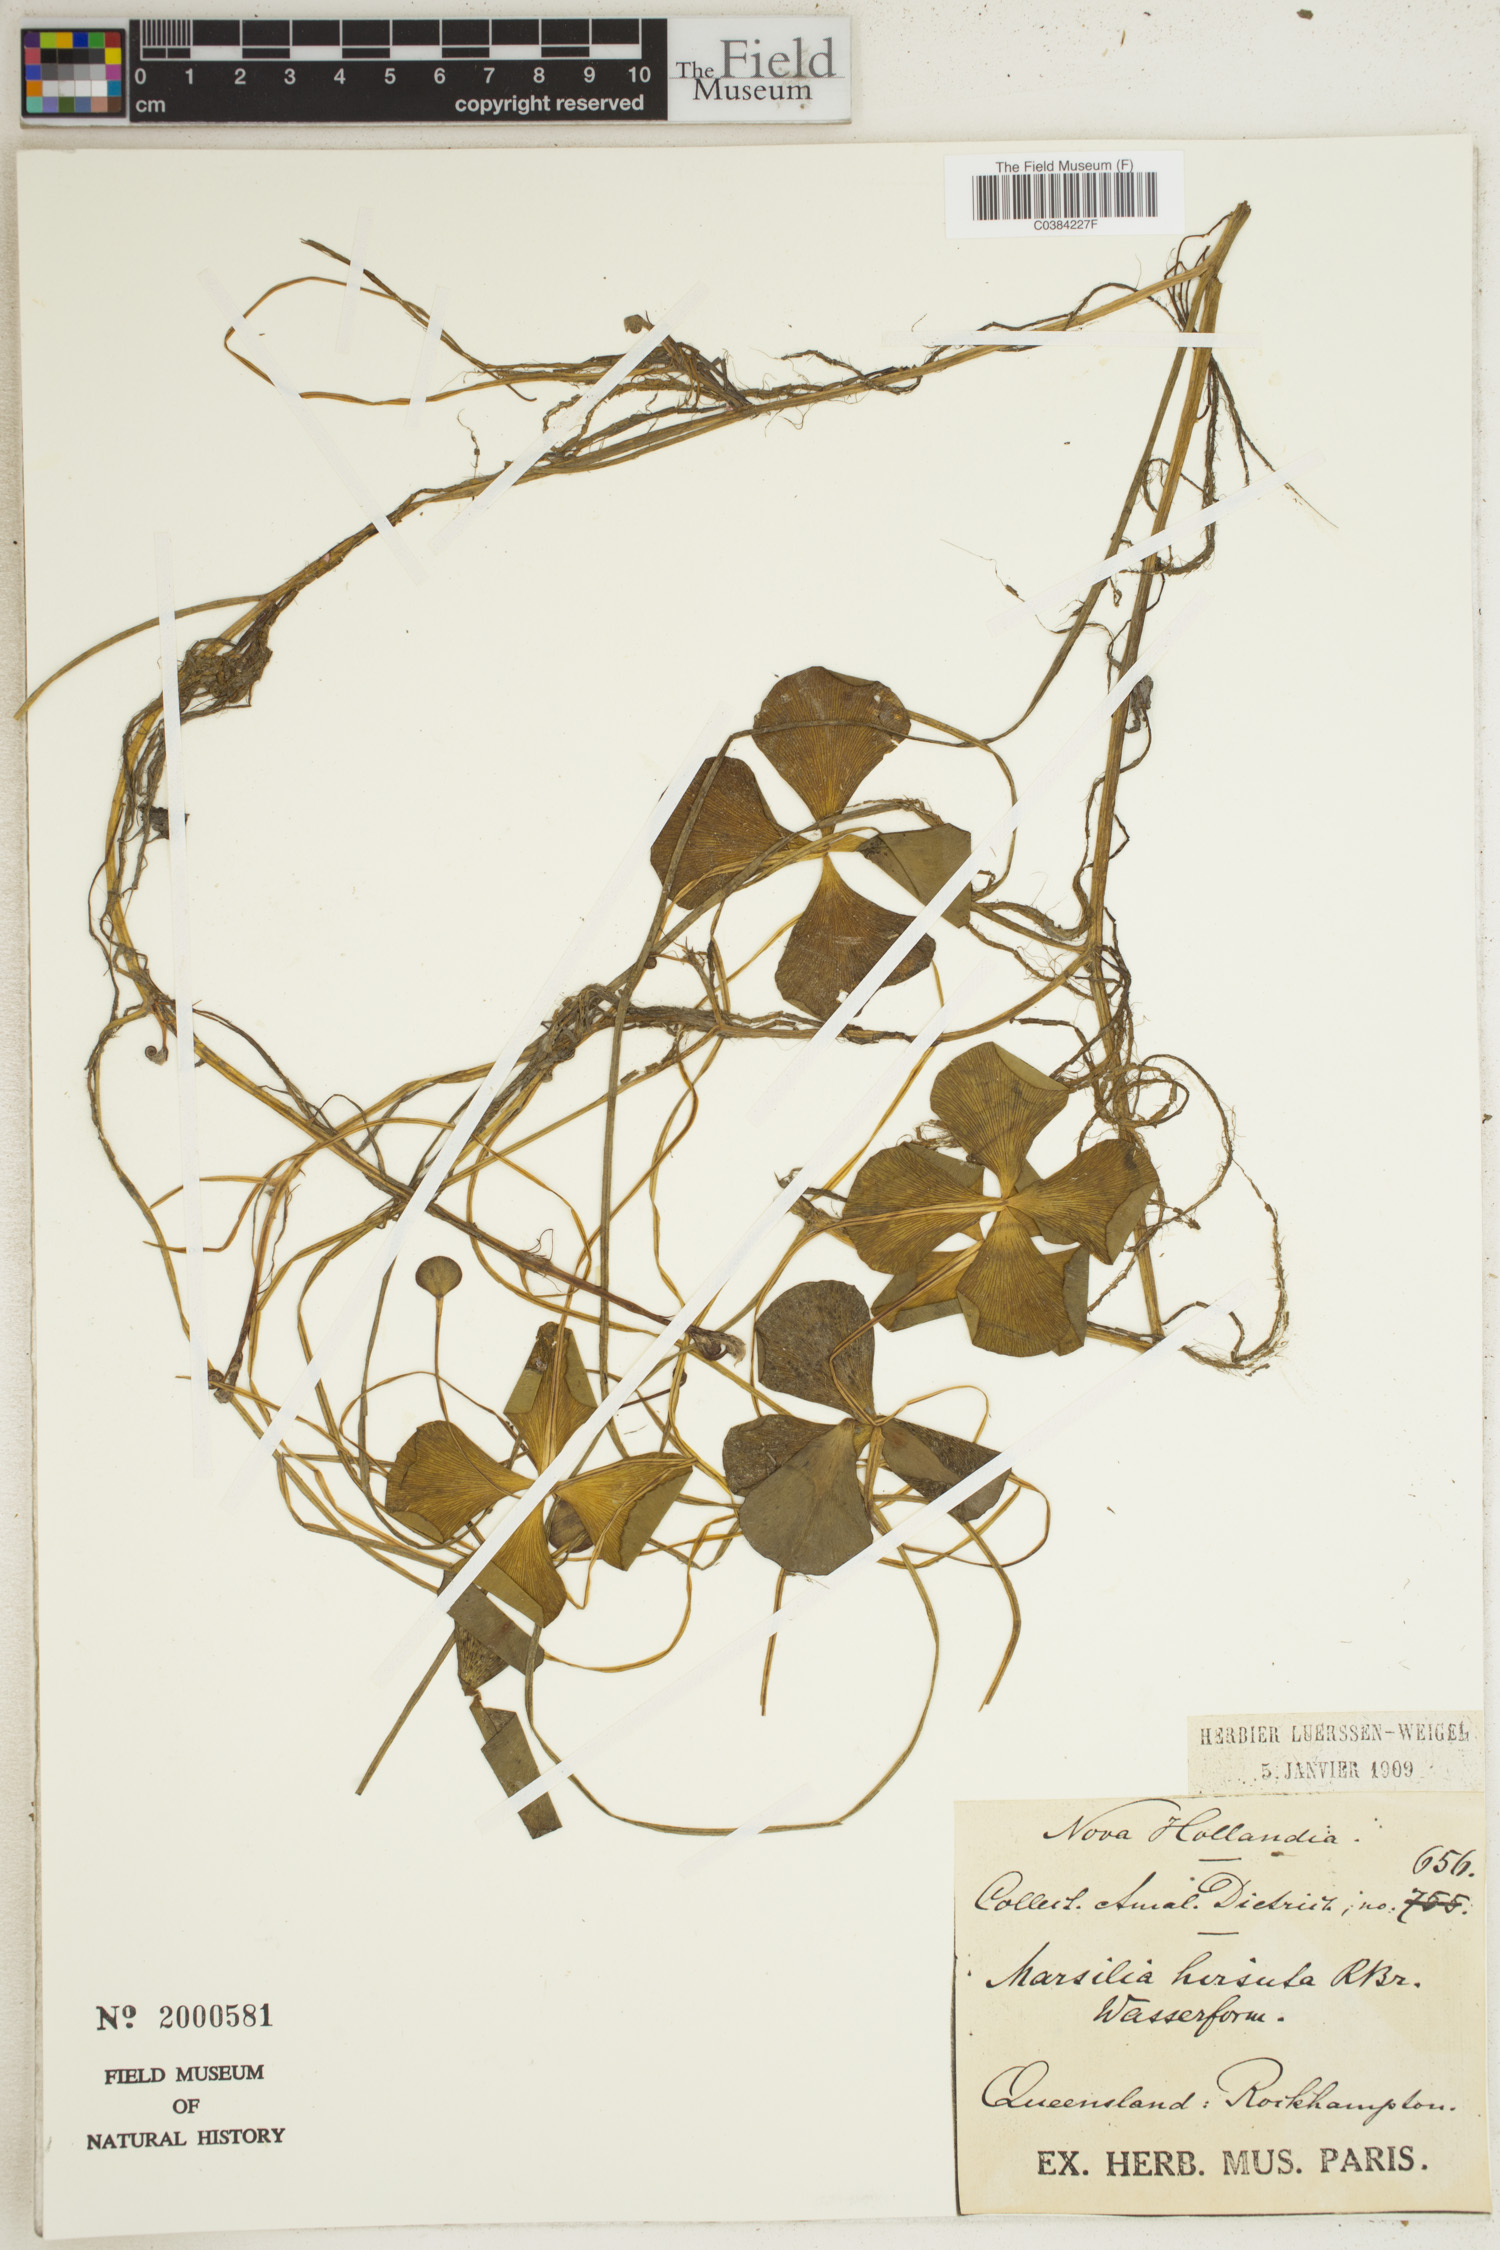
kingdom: Plantae
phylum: Tracheophyta
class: Polypodiopsida
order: Salviniales
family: Marsileaceae
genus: Marsilea
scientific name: Marsilea hirsuta
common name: Rough waterclover
